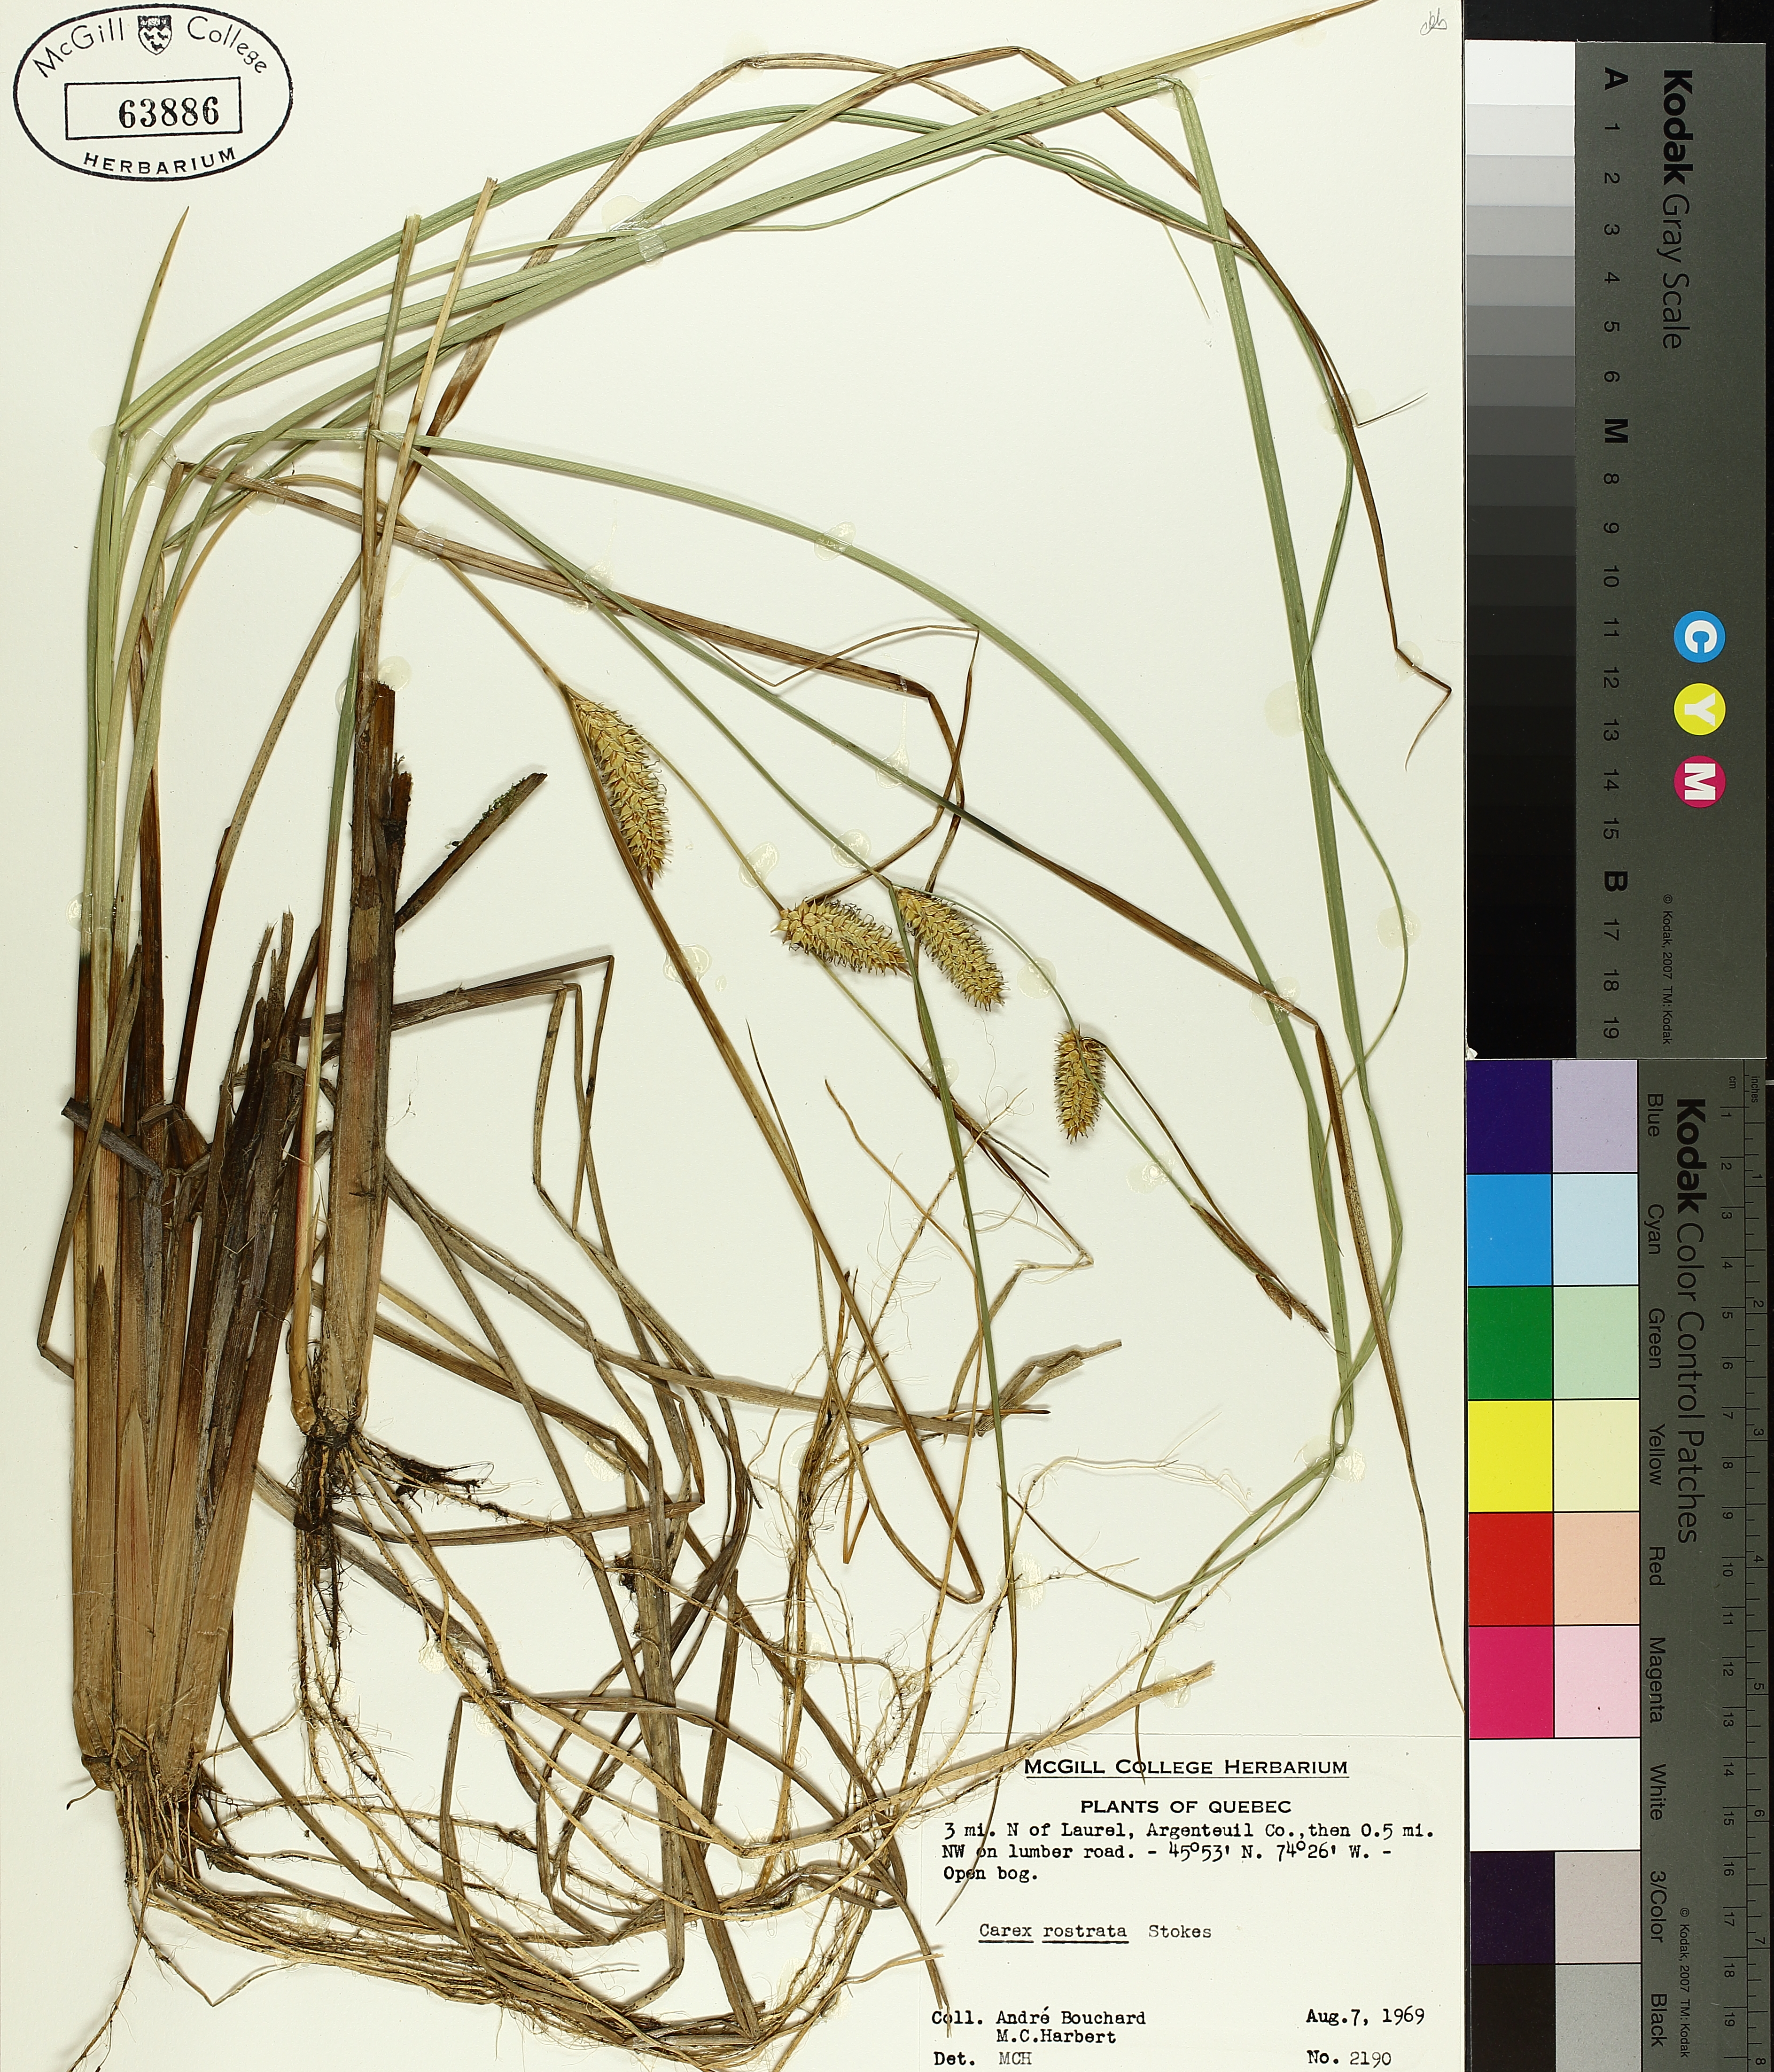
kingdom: Plantae
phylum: Tracheophyta
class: Liliopsida
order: Poales
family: Cyperaceae
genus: Carex
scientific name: Carex rostrata
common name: Bottle sedge
